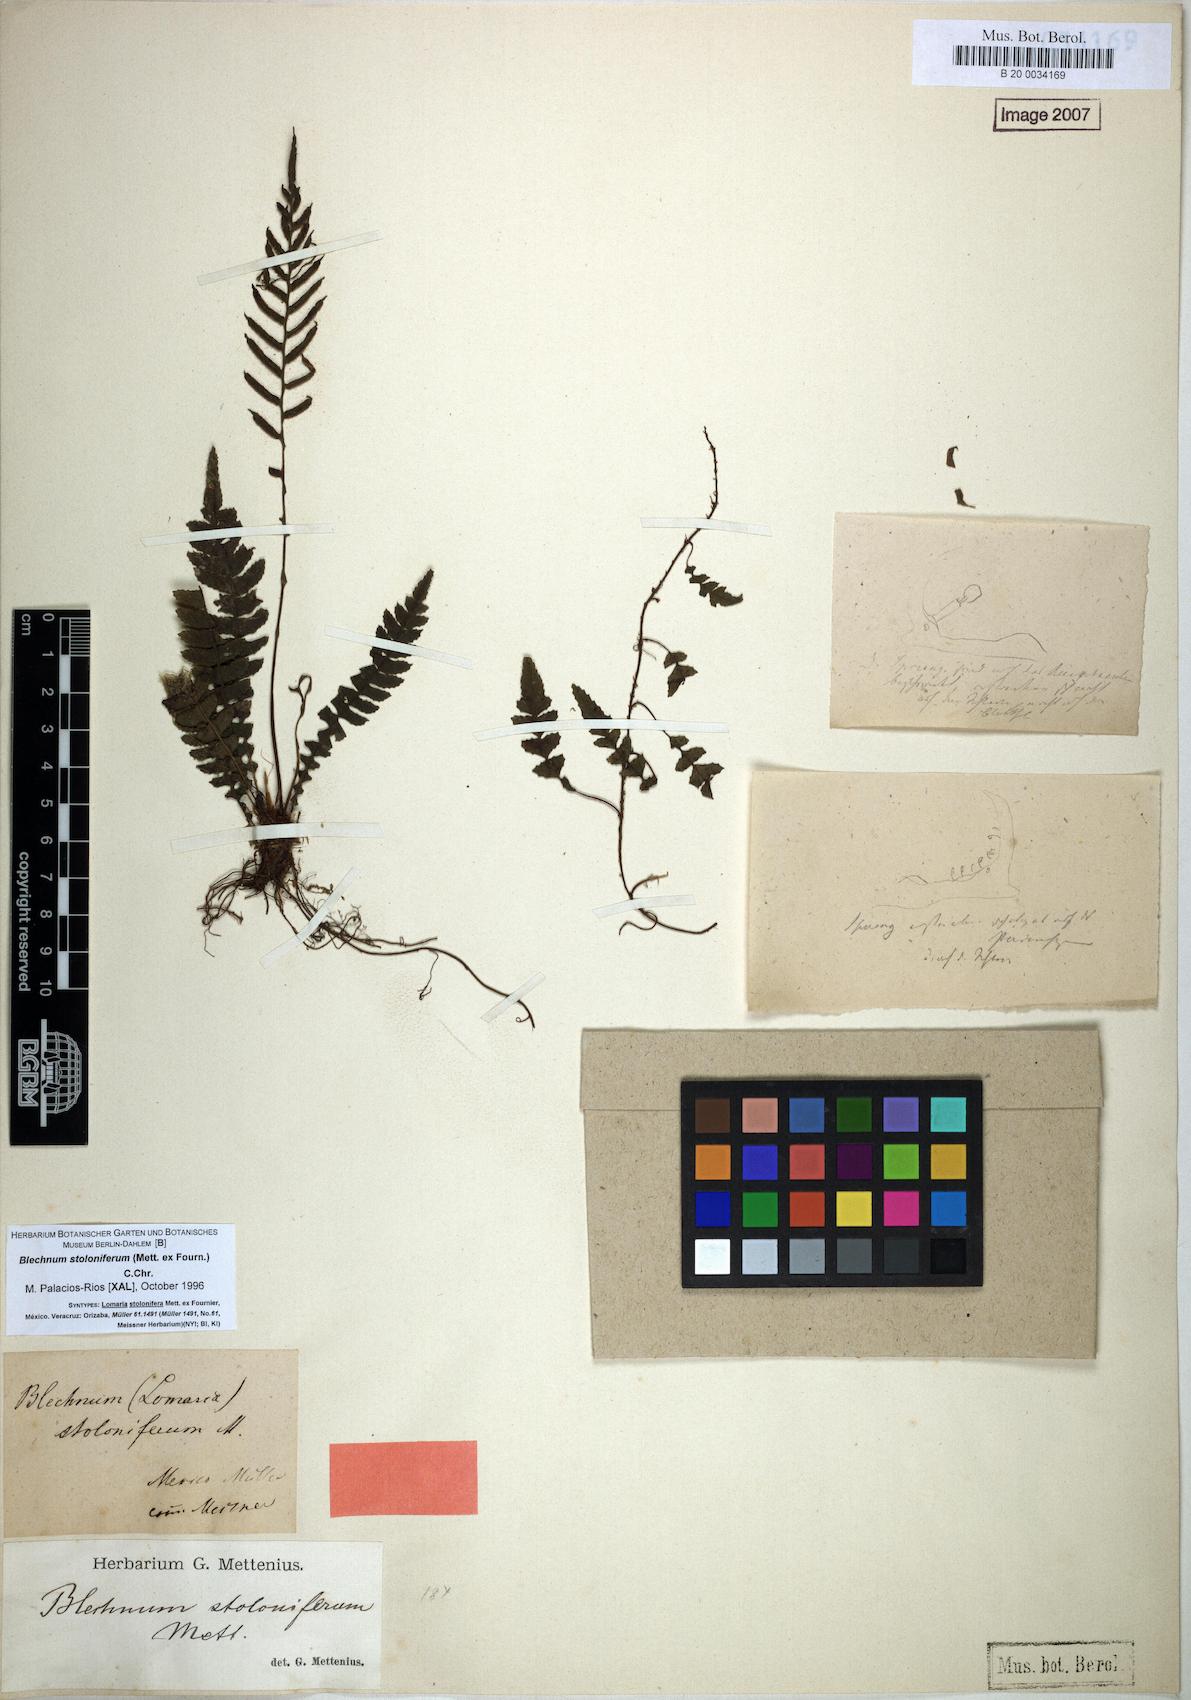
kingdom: Plantae
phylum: Tracheophyta
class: Polypodiopsida
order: Polypodiales
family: Blechnaceae
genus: Austroblechnum
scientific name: Austroblechnum stoloniferum
